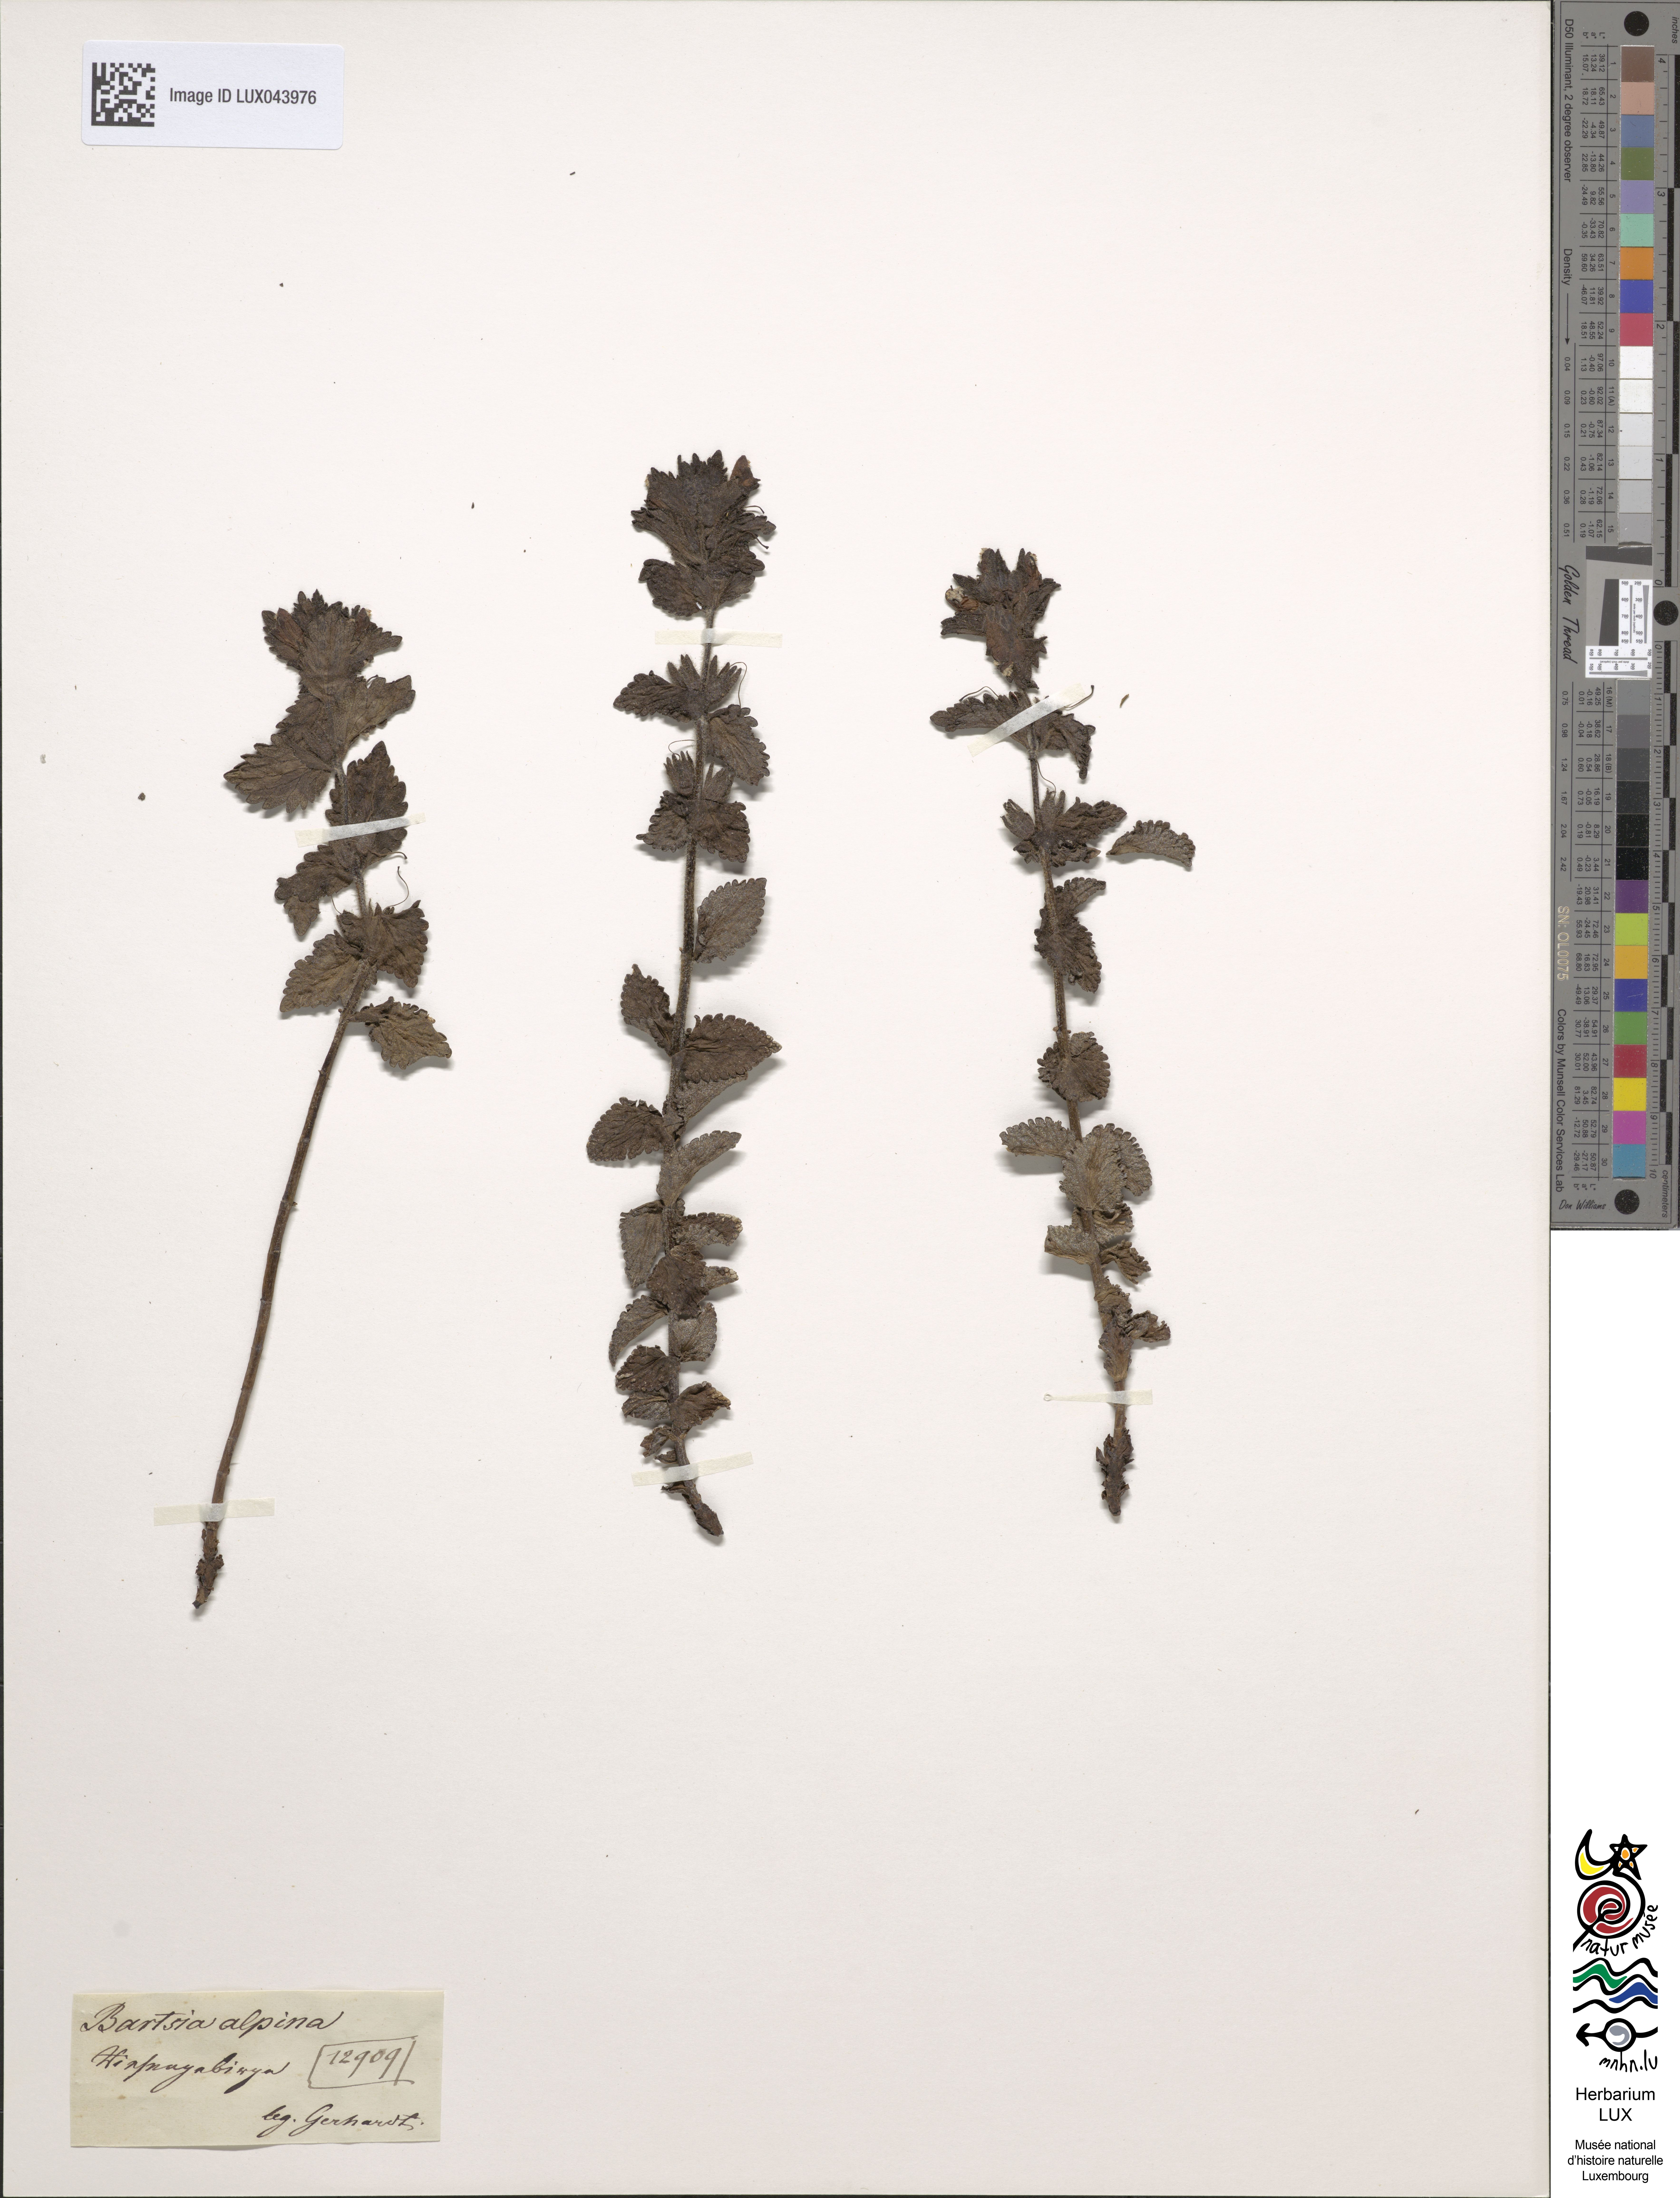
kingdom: Plantae
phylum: Tracheophyta
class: Magnoliopsida
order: Lamiales
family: Orobanchaceae
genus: Bartsia
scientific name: Bartsia alpina
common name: Alpine bartsia
